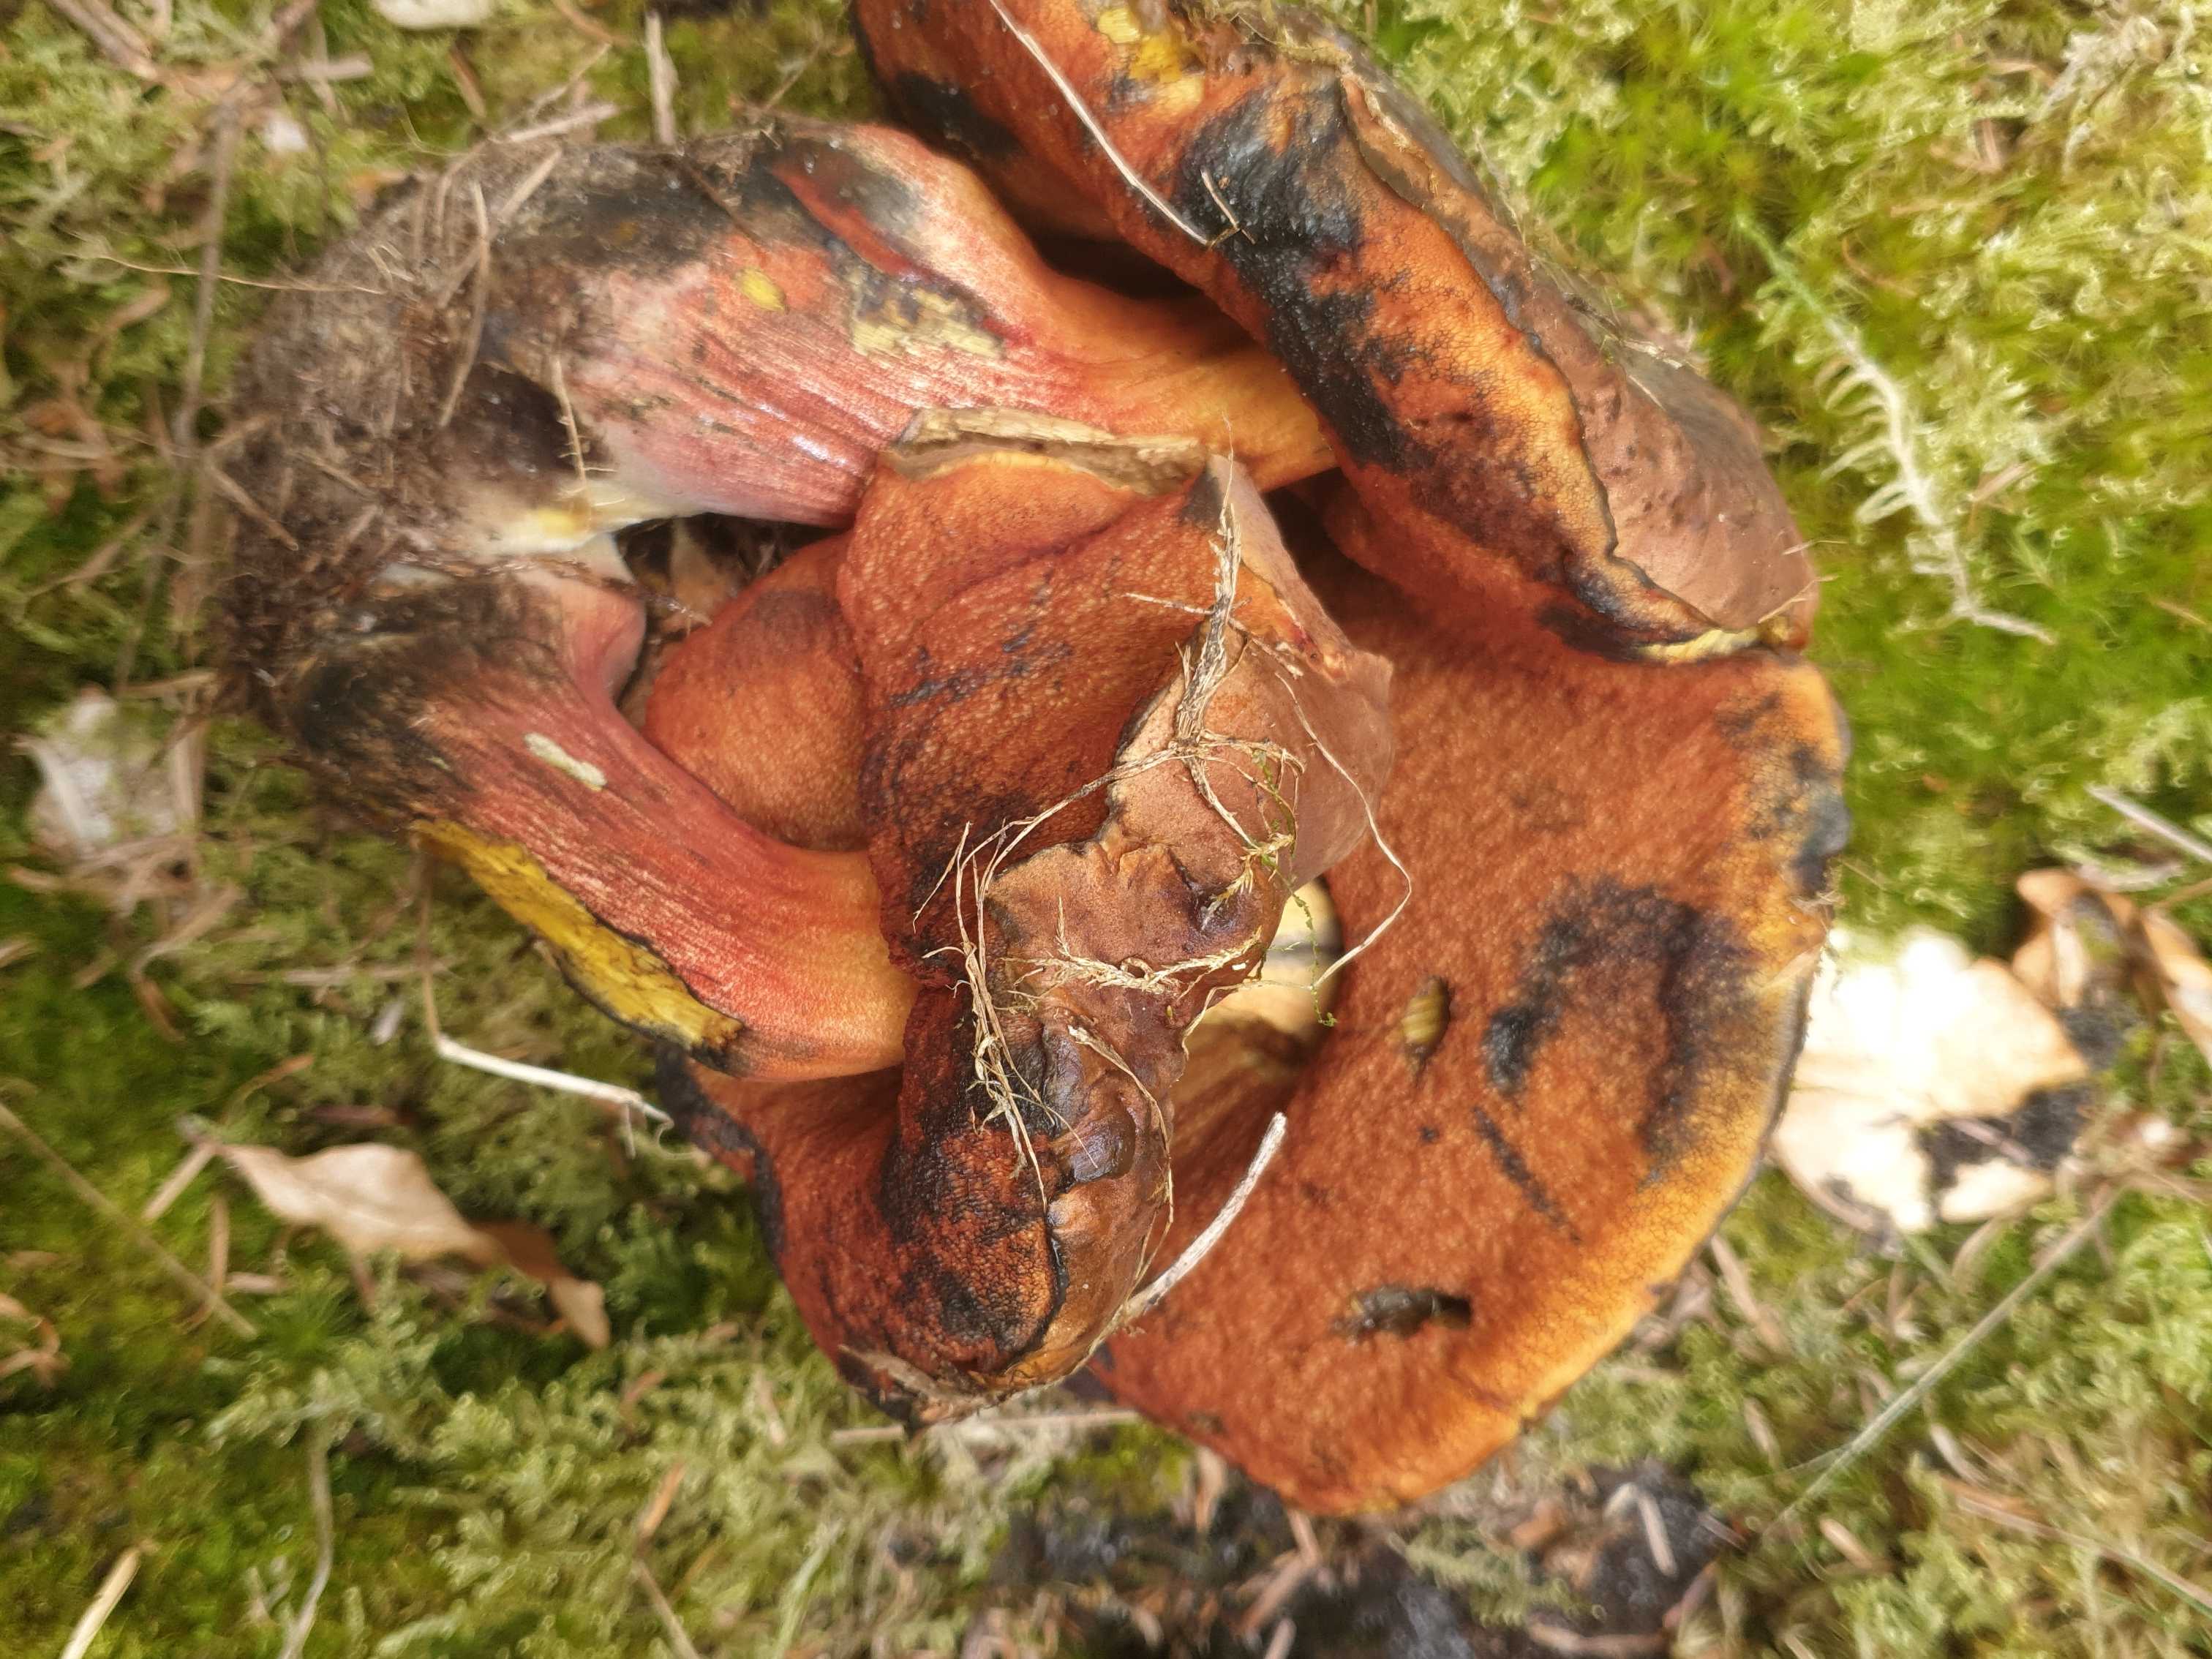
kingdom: Fungi
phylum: Basidiomycota
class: Agaricomycetes
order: Boletales
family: Boletaceae
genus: Neoboletus
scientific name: Neoboletus erythropus
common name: punktstokket indigorørhat
